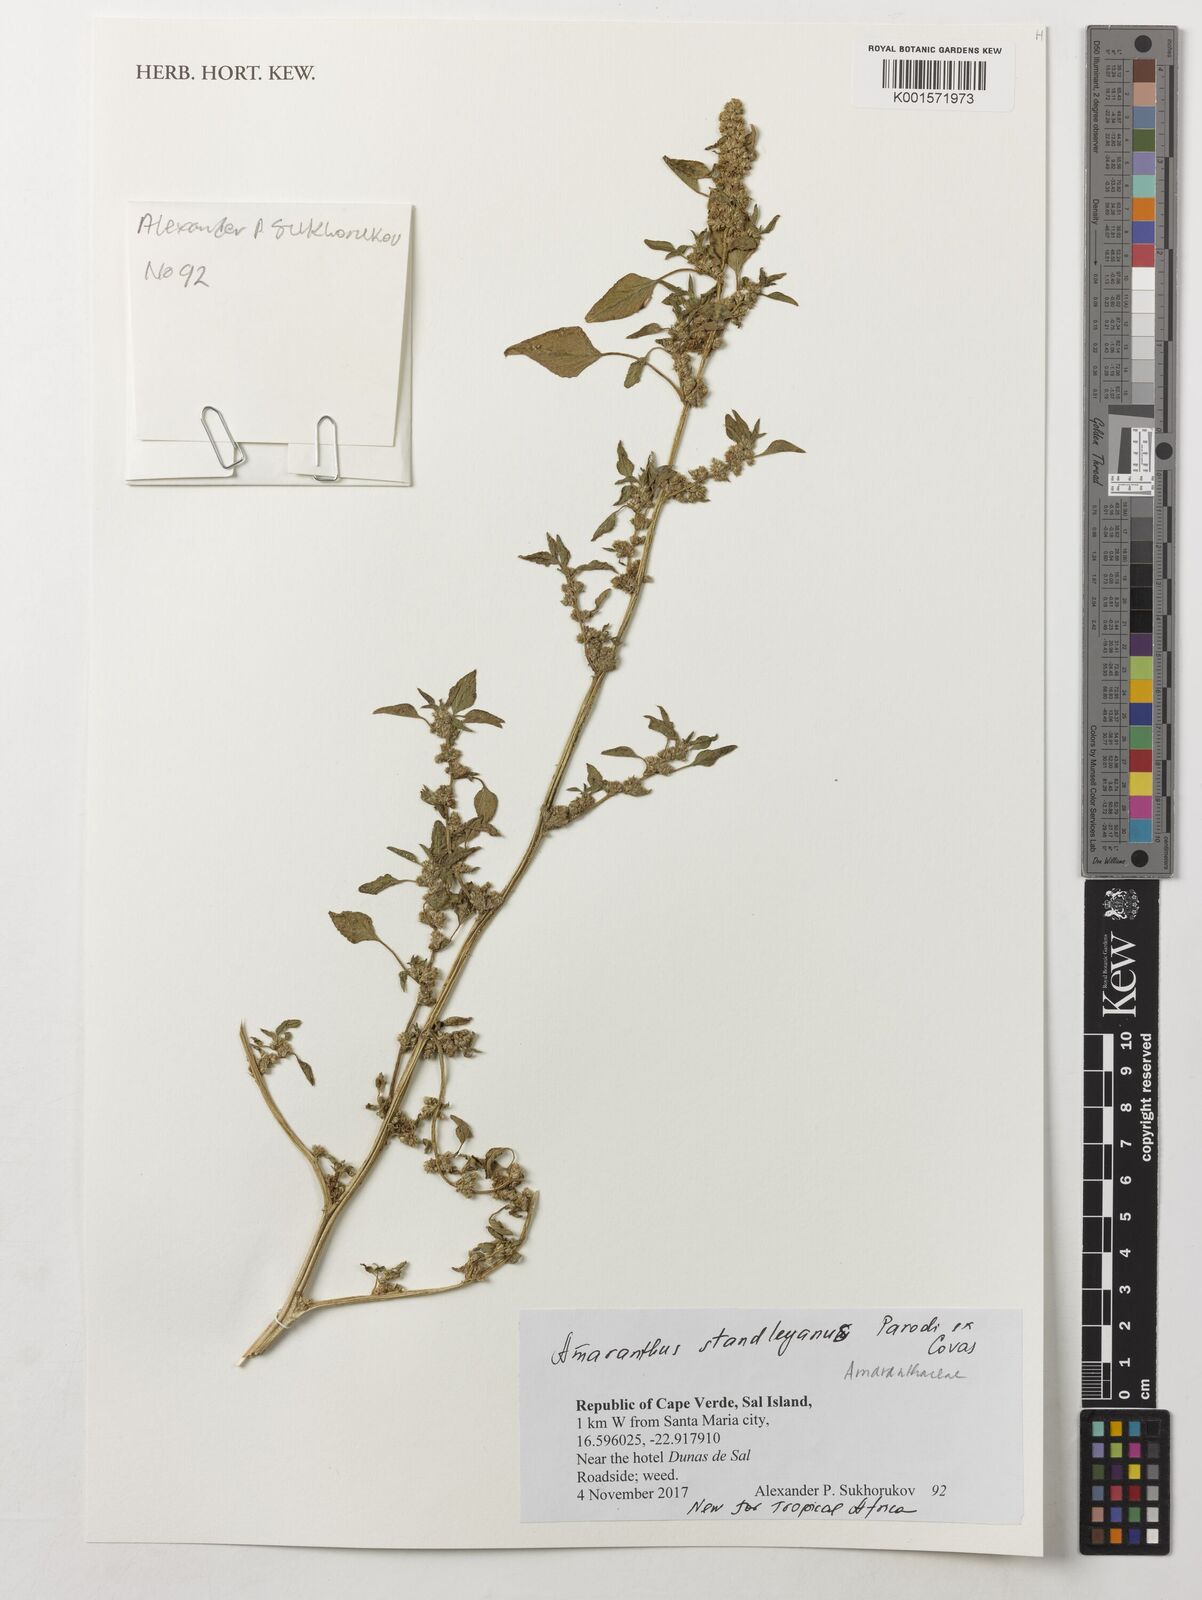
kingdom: Plantae
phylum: Tracheophyta
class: Magnoliopsida
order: Caryophyllales
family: Amaranthaceae
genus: Amaranthus
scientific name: Amaranthus standleyanus
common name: Indehiscent pigweed
